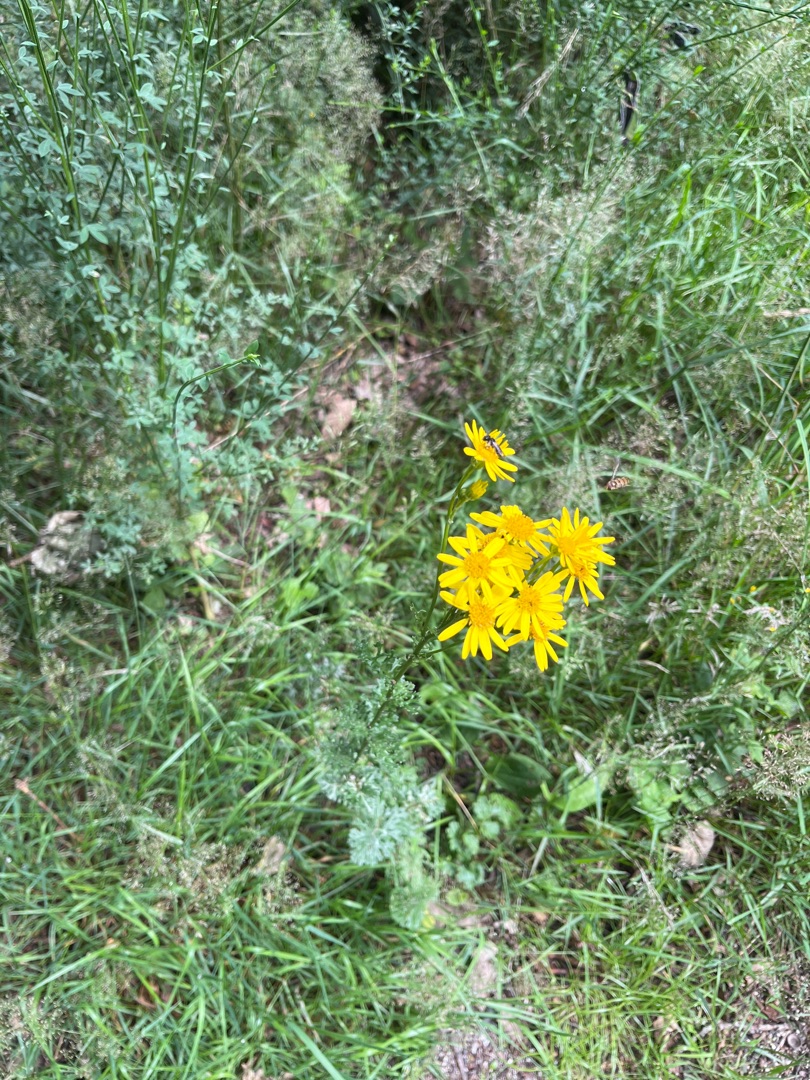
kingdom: Plantae
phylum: Tracheophyta
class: Magnoliopsida
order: Asterales
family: Asteraceae
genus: Jacobaea
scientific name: Jacobaea vulgaris
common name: Eng-brandbæger
